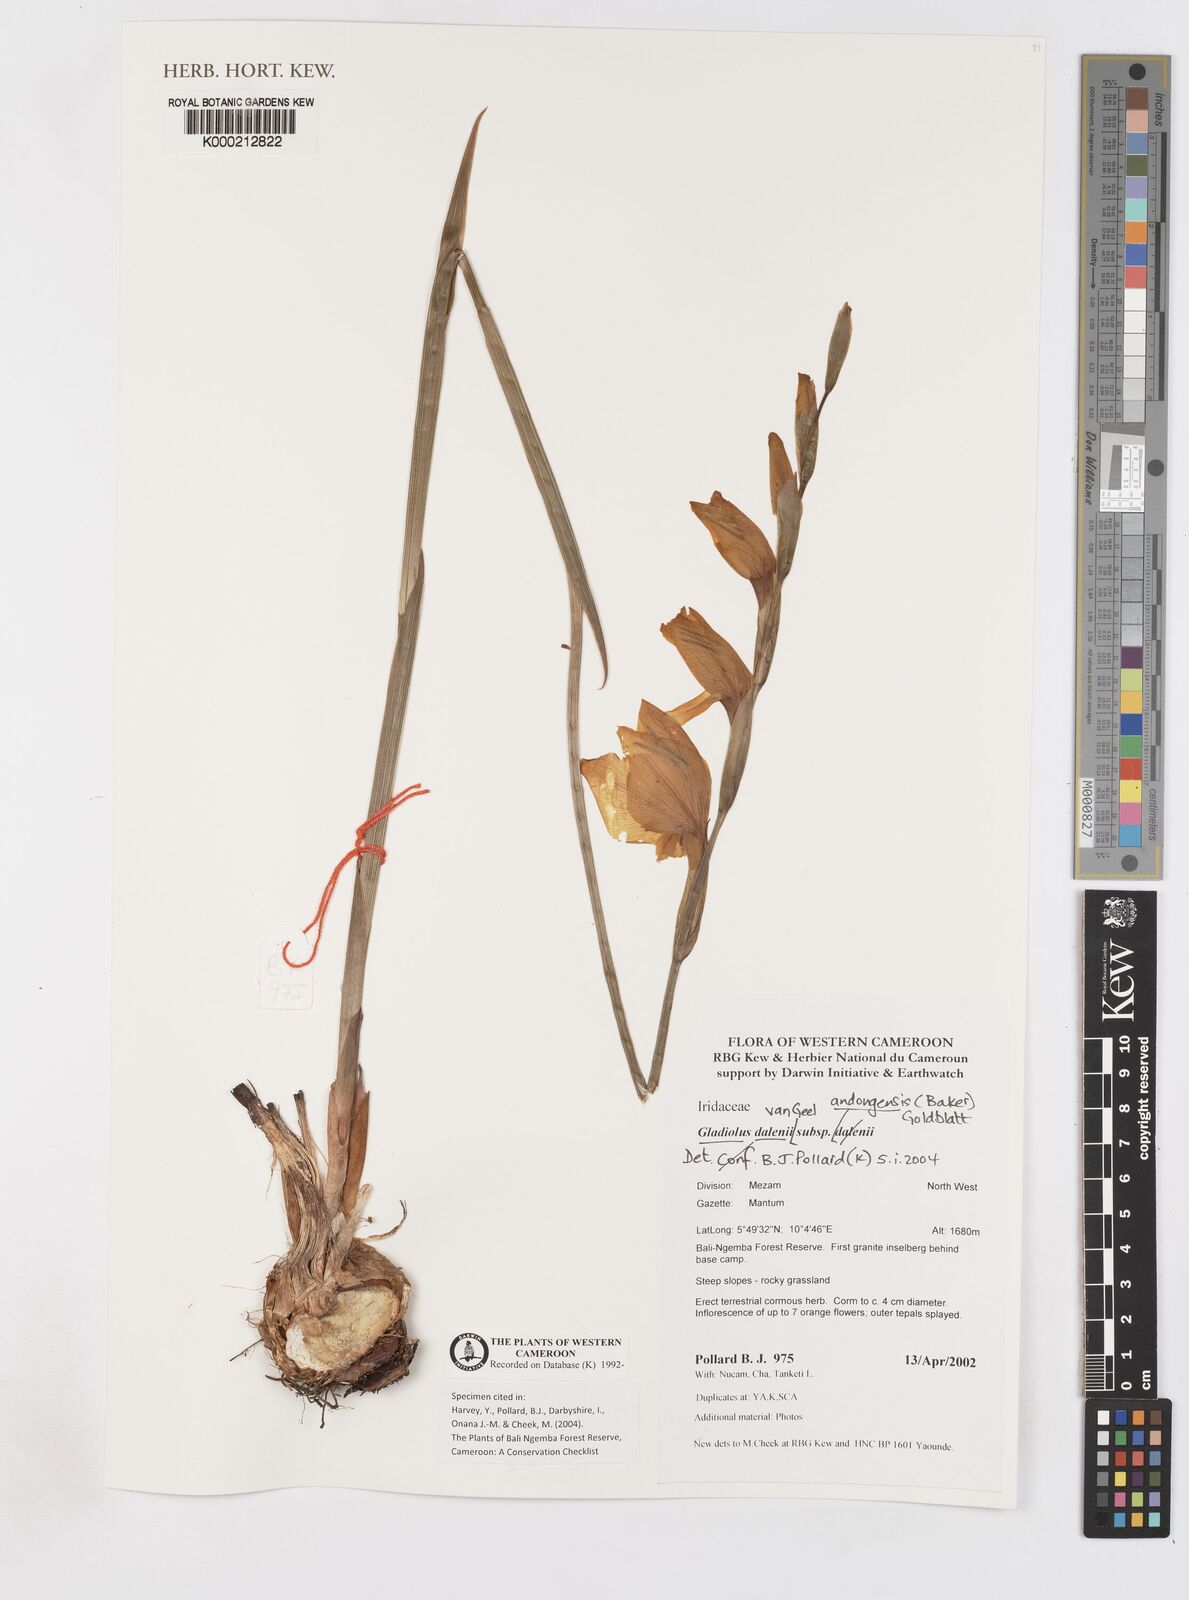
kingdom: Plantae
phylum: Tracheophyta
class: Liliopsida
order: Asparagales
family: Iridaceae
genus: Gladiolus
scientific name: Gladiolus dalenii
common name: Cornflag
